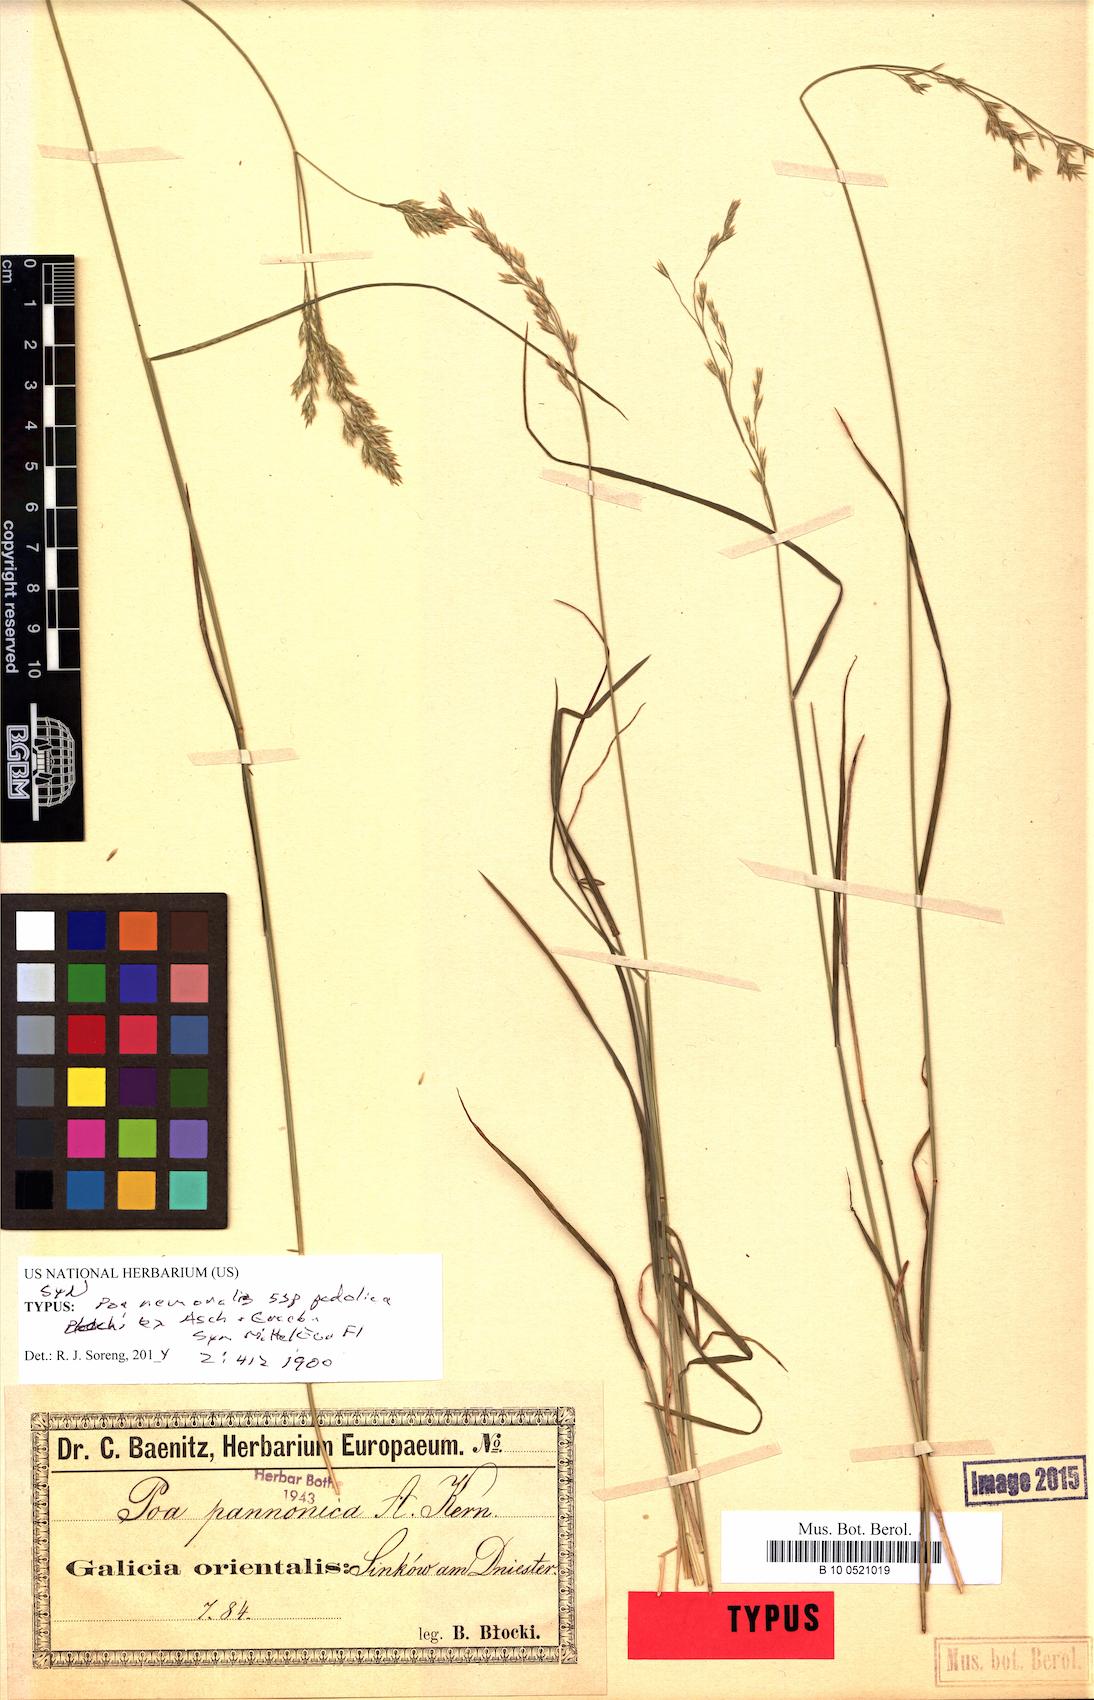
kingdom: Plantae
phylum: Tracheophyta
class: Liliopsida
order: Poales
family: Poaceae
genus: Poa
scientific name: Poa versicolor
